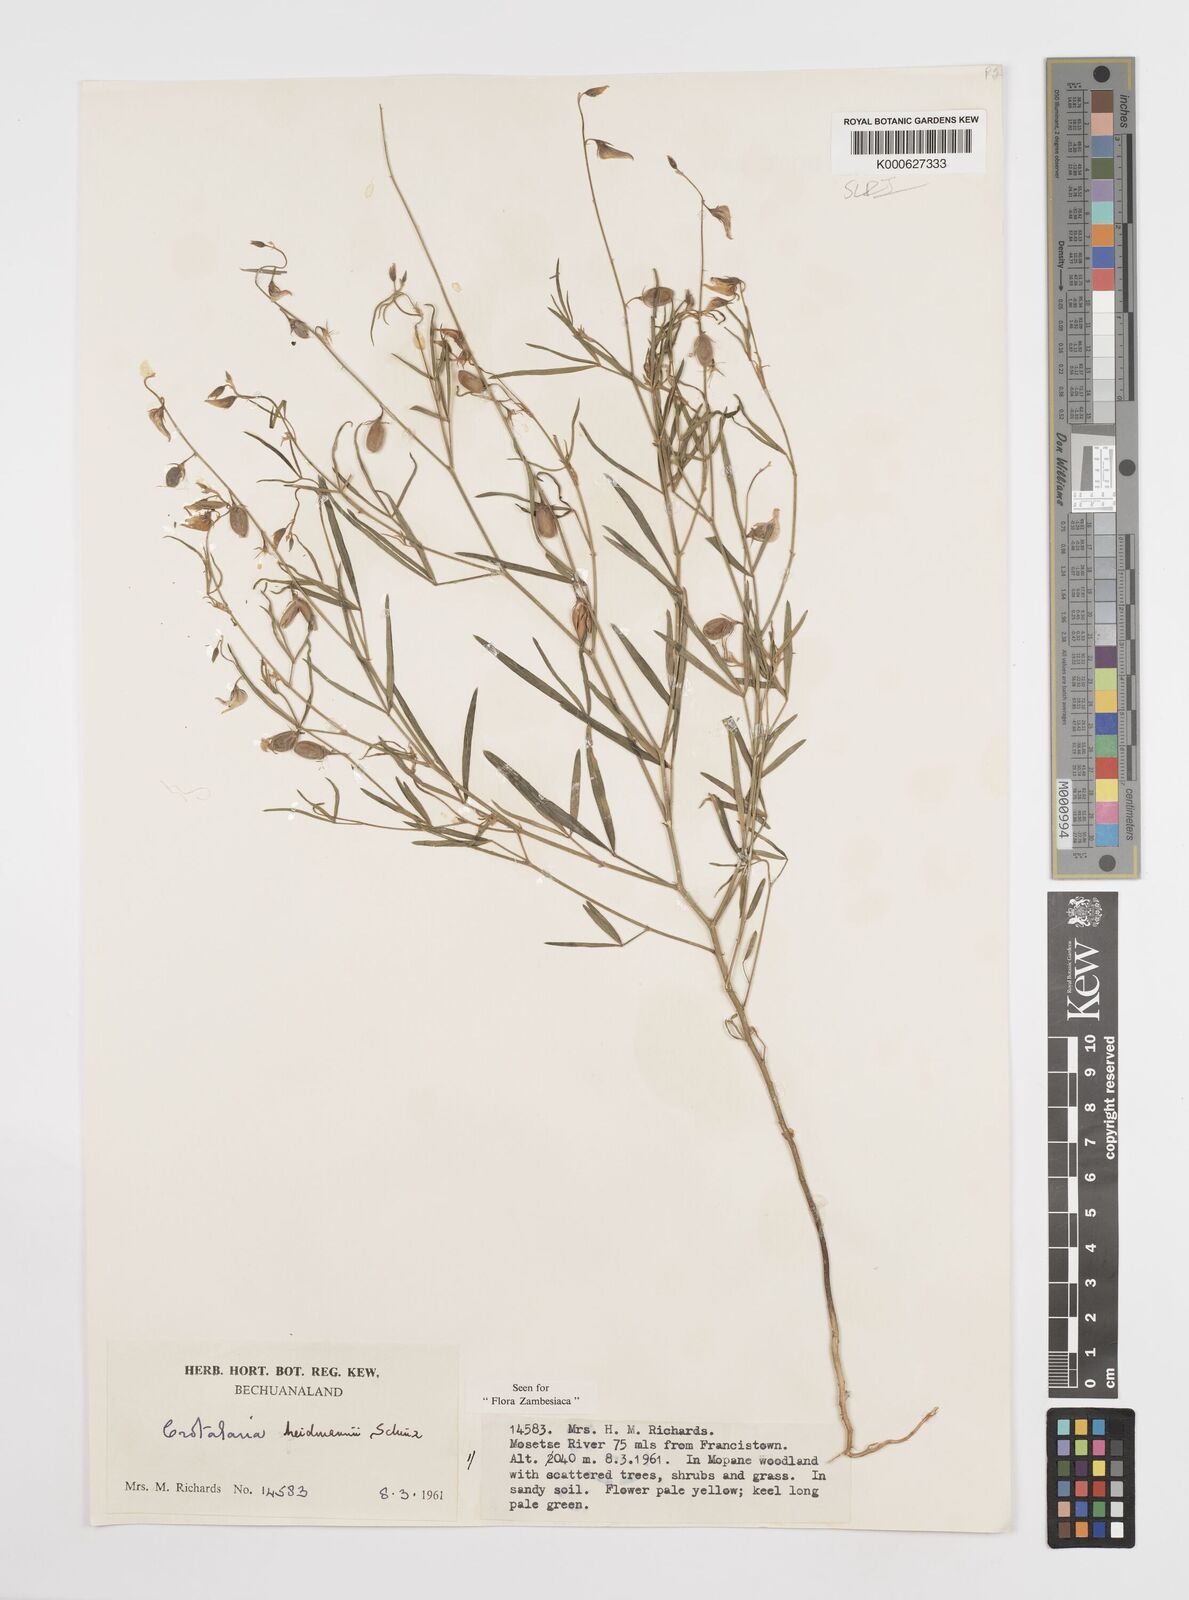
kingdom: Plantae
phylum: Tracheophyta
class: Magnoliopsida
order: Fabales
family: Fabaceae
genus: Crotalaria
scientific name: Crotalaria heidmannii
